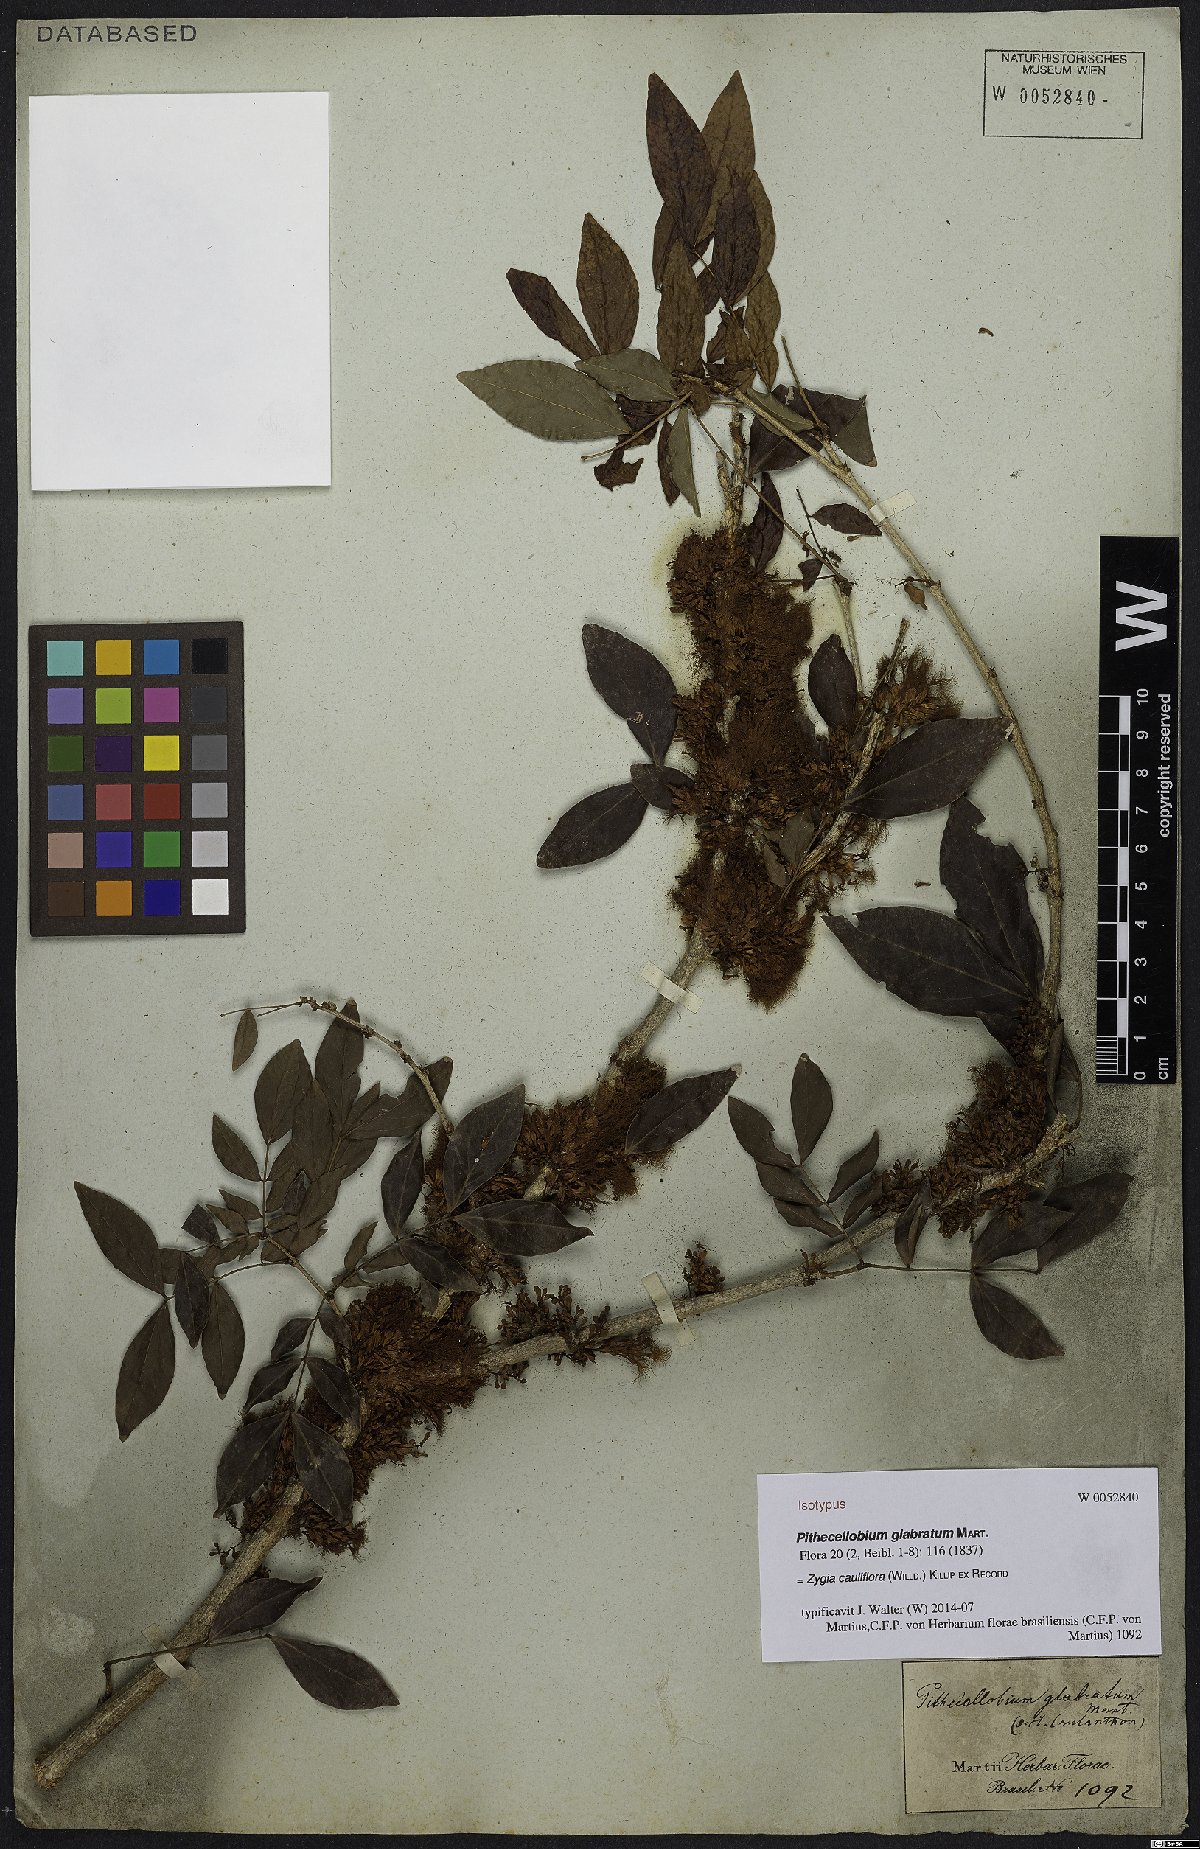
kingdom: Plantae
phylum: Tracheophyta
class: Magnoliopsida
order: Fabales
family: Fabaceae
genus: Zygia
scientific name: Zygia cauliflora
